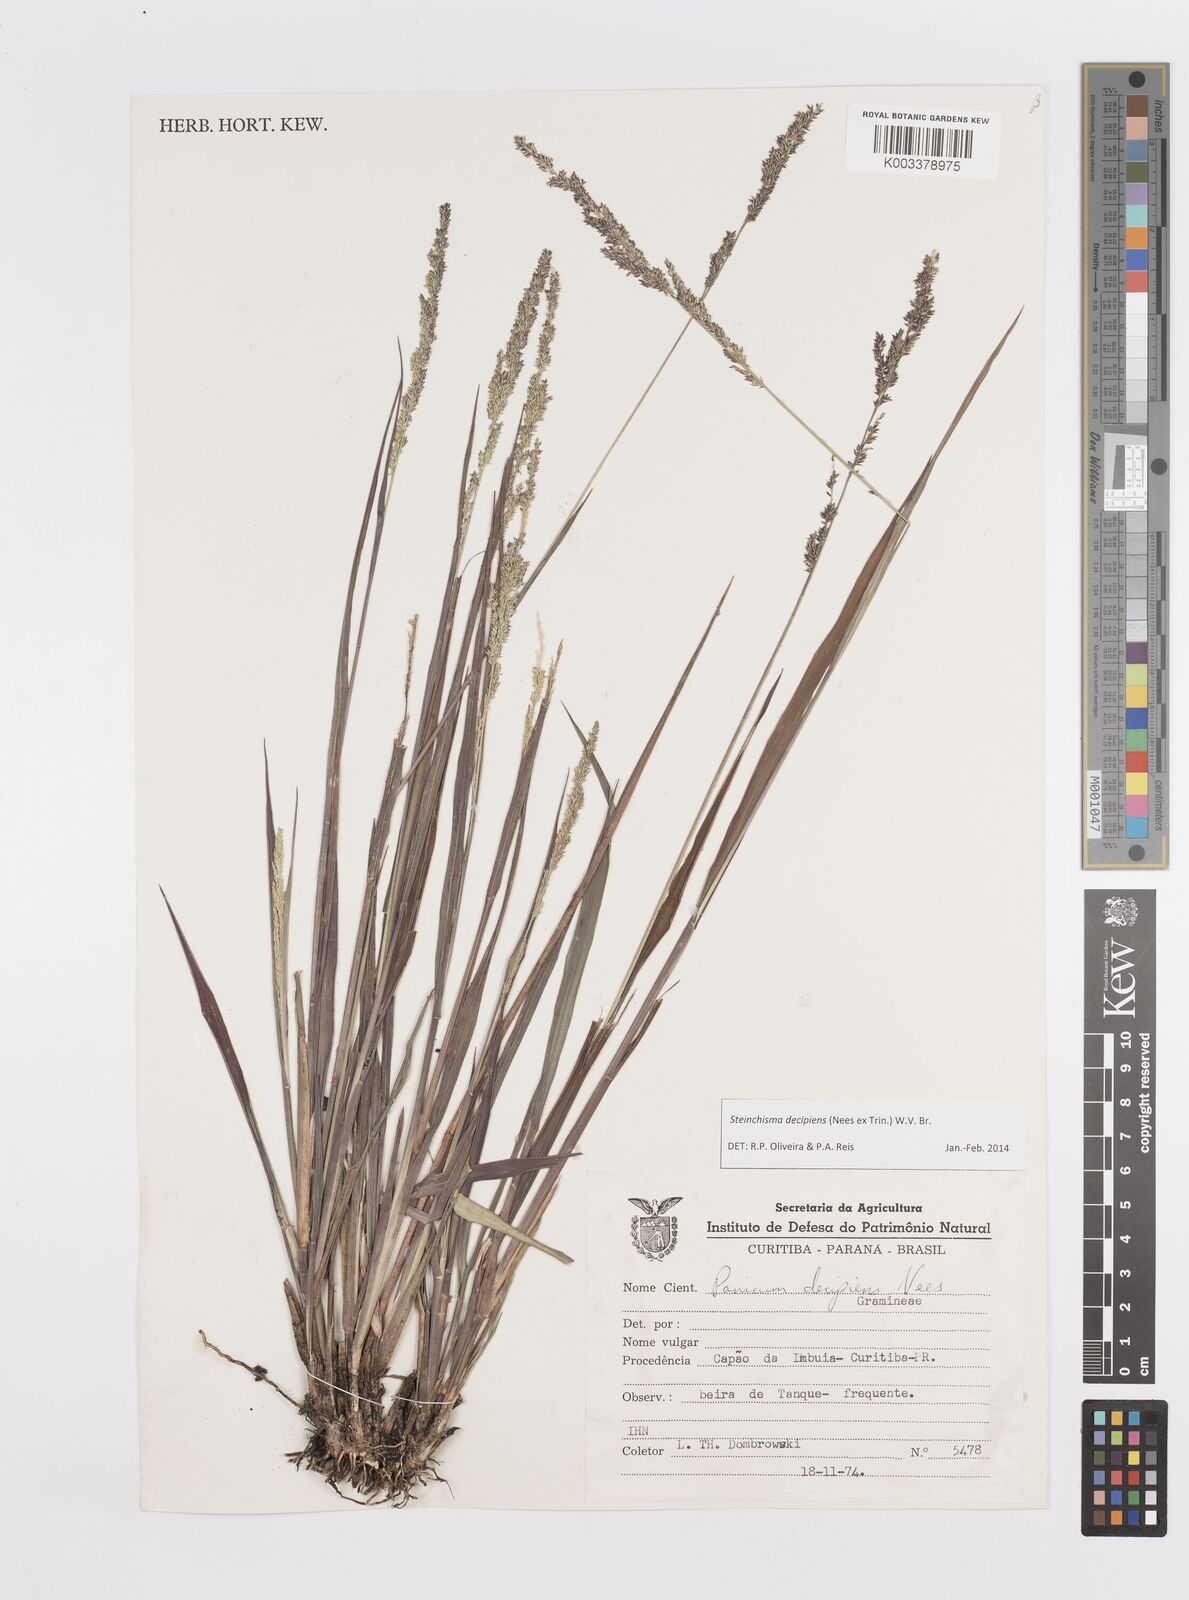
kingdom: Plantae
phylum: Tracheophyta
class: Liliopsida
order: Poales
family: Poaceae
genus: Steinchisma
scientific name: Steinchisma decipiens
